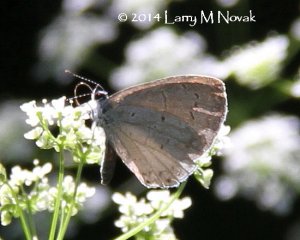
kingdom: Animalia
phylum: Arthropoda
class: Insecta
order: Lepidoptera
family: Lycaenidae
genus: Celastrina
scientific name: Celastrina serotina
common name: Cherry Gall Azure
